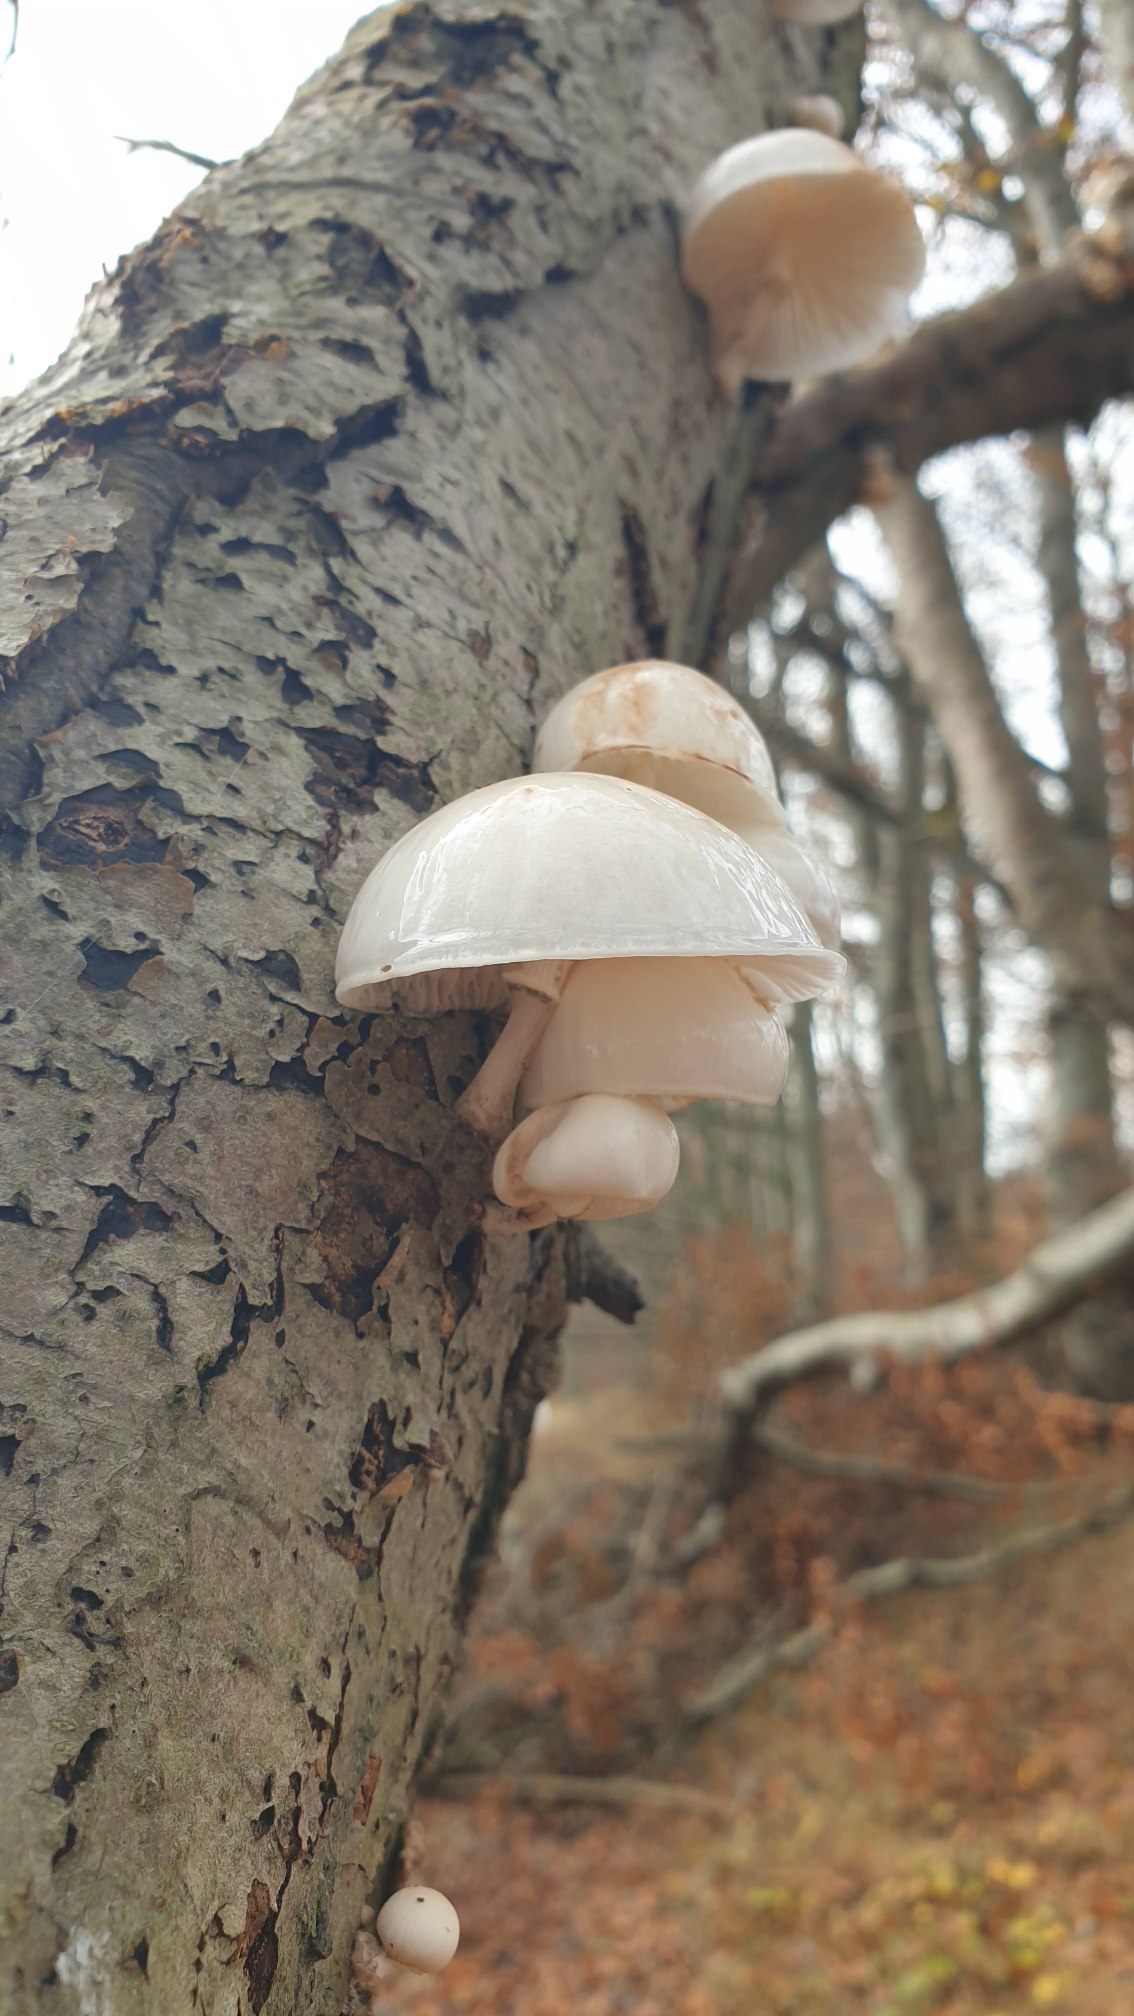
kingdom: Fungi
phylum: Basidiomycota
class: Agaricomycetes
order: Agaricales
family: Physalacriaceae
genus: Mucidula
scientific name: Mucidula mucida
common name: Porcelænshat
